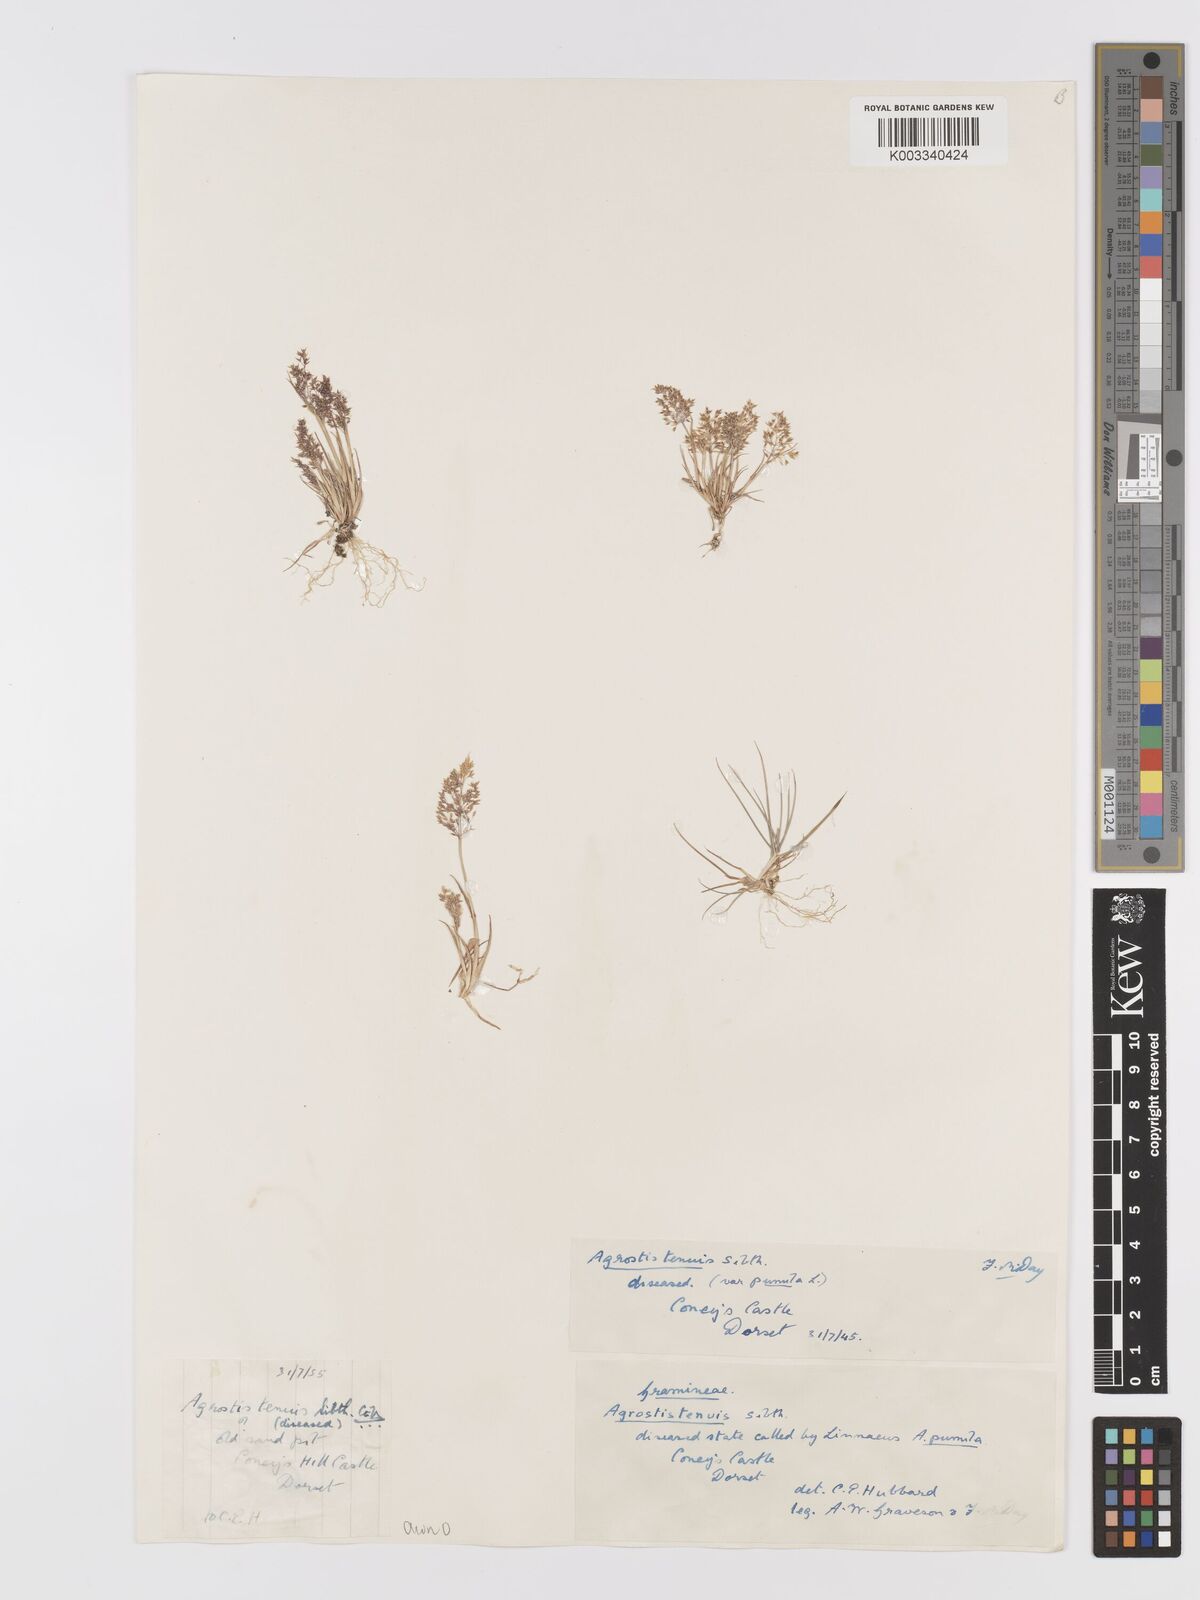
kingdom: Plantae
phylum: Tracheophyta
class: Liliopsida
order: Poales
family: Poaceae
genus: Agrostis
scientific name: Agrostis capillaris
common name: Colonial bentgrass
